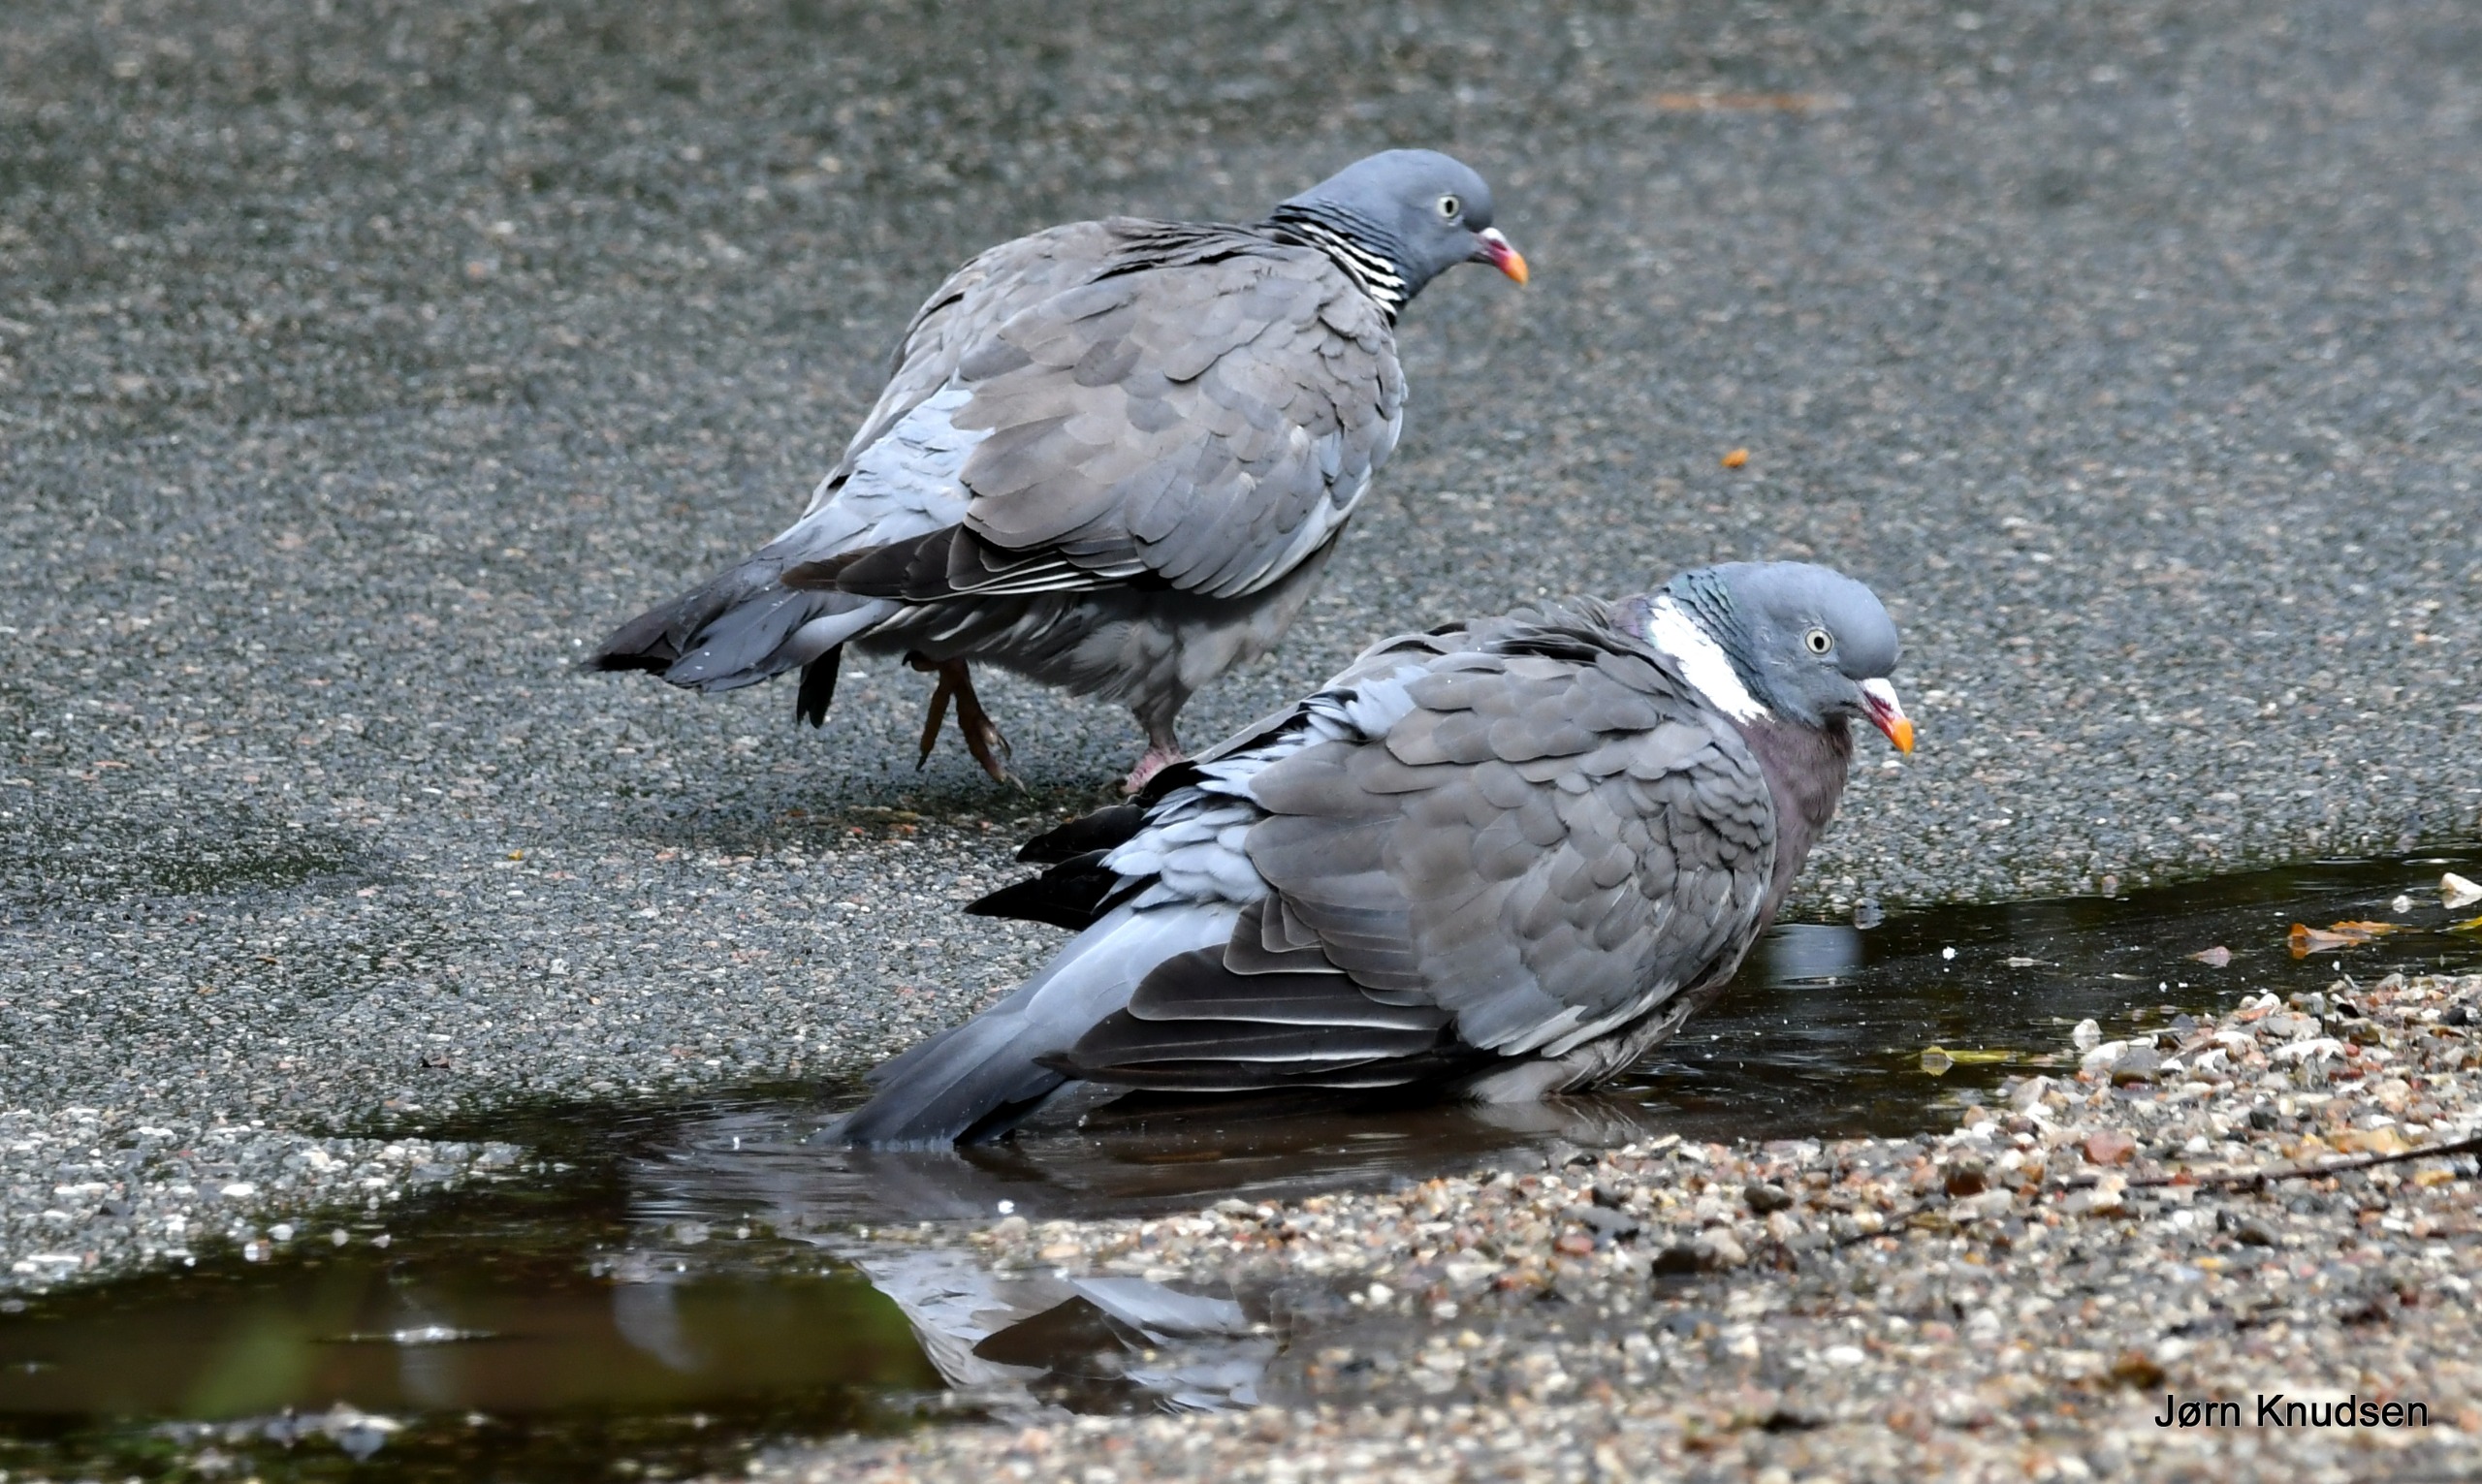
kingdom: Animalia
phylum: Chordata
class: Aves
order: Columbiformes
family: Columbidae
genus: Columba
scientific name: Columba palumbus
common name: Ringdue
